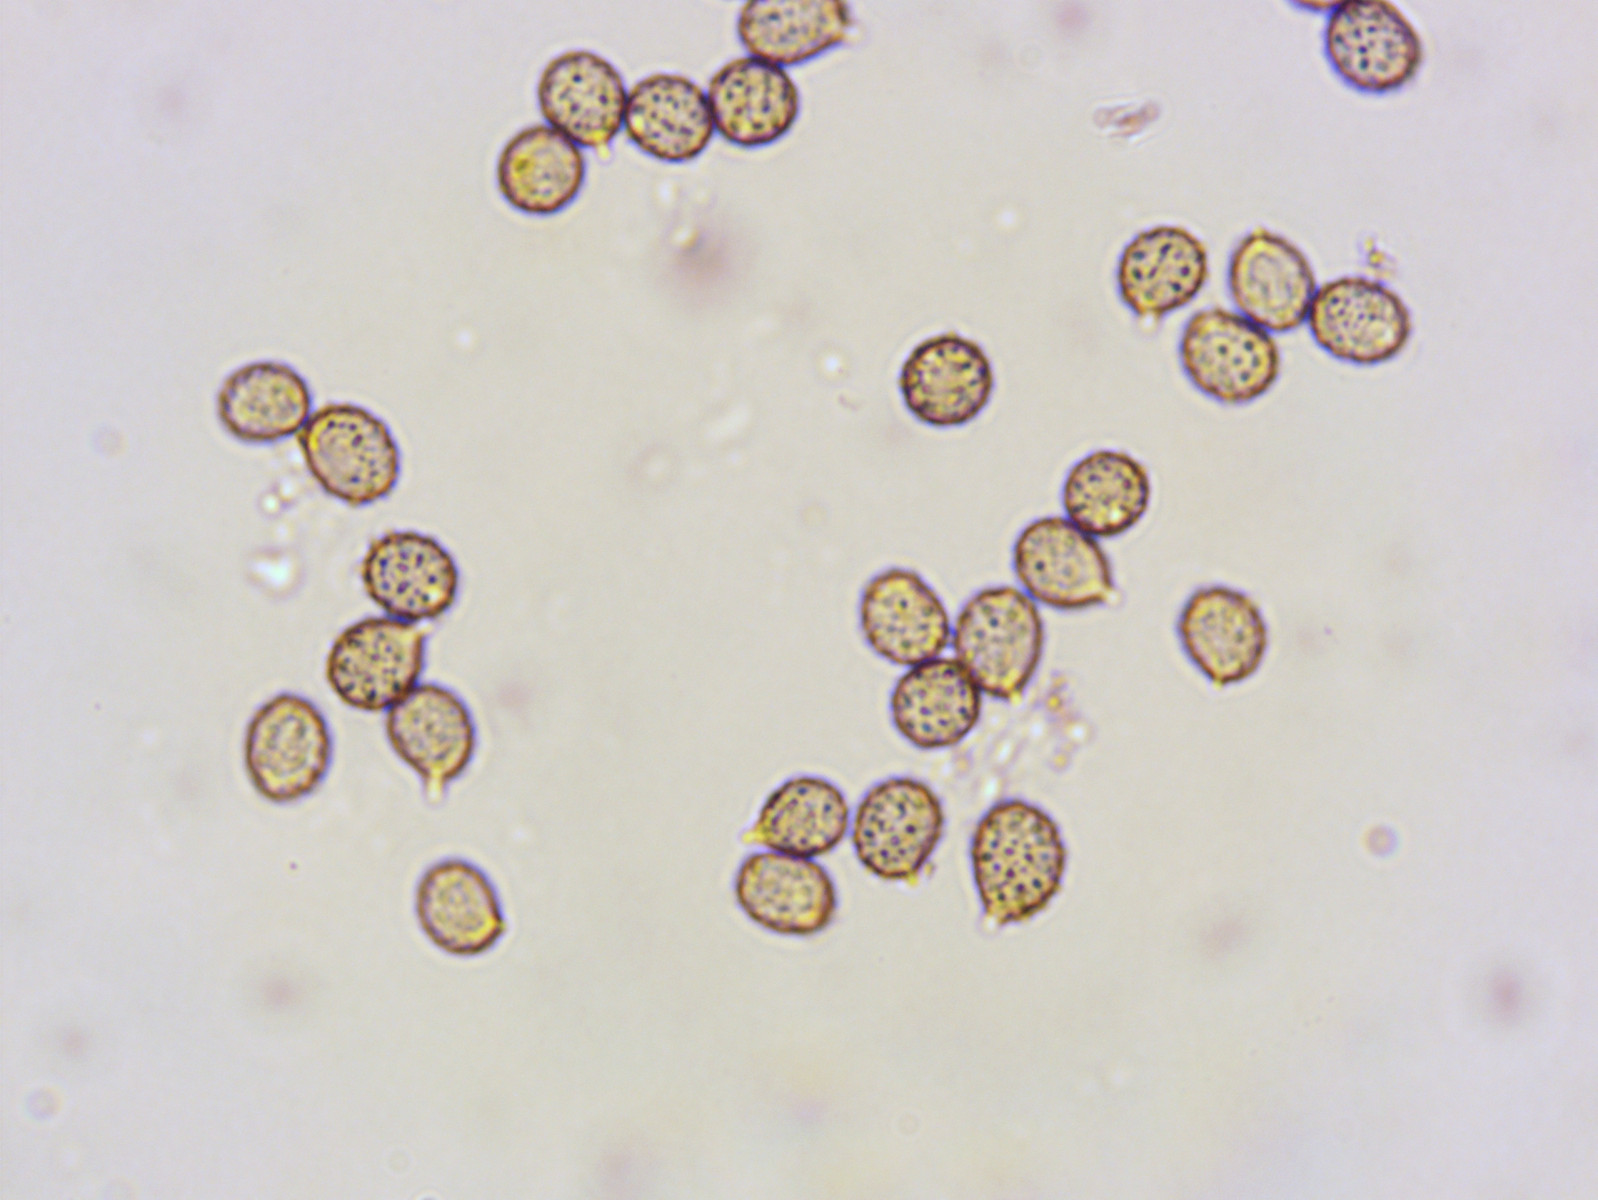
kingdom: Fungi
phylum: Basidiomycota
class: Agaricomycetes
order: Russulales
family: Russulaceae
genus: Russula
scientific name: Russula sororia
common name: brun kam-skørhat
